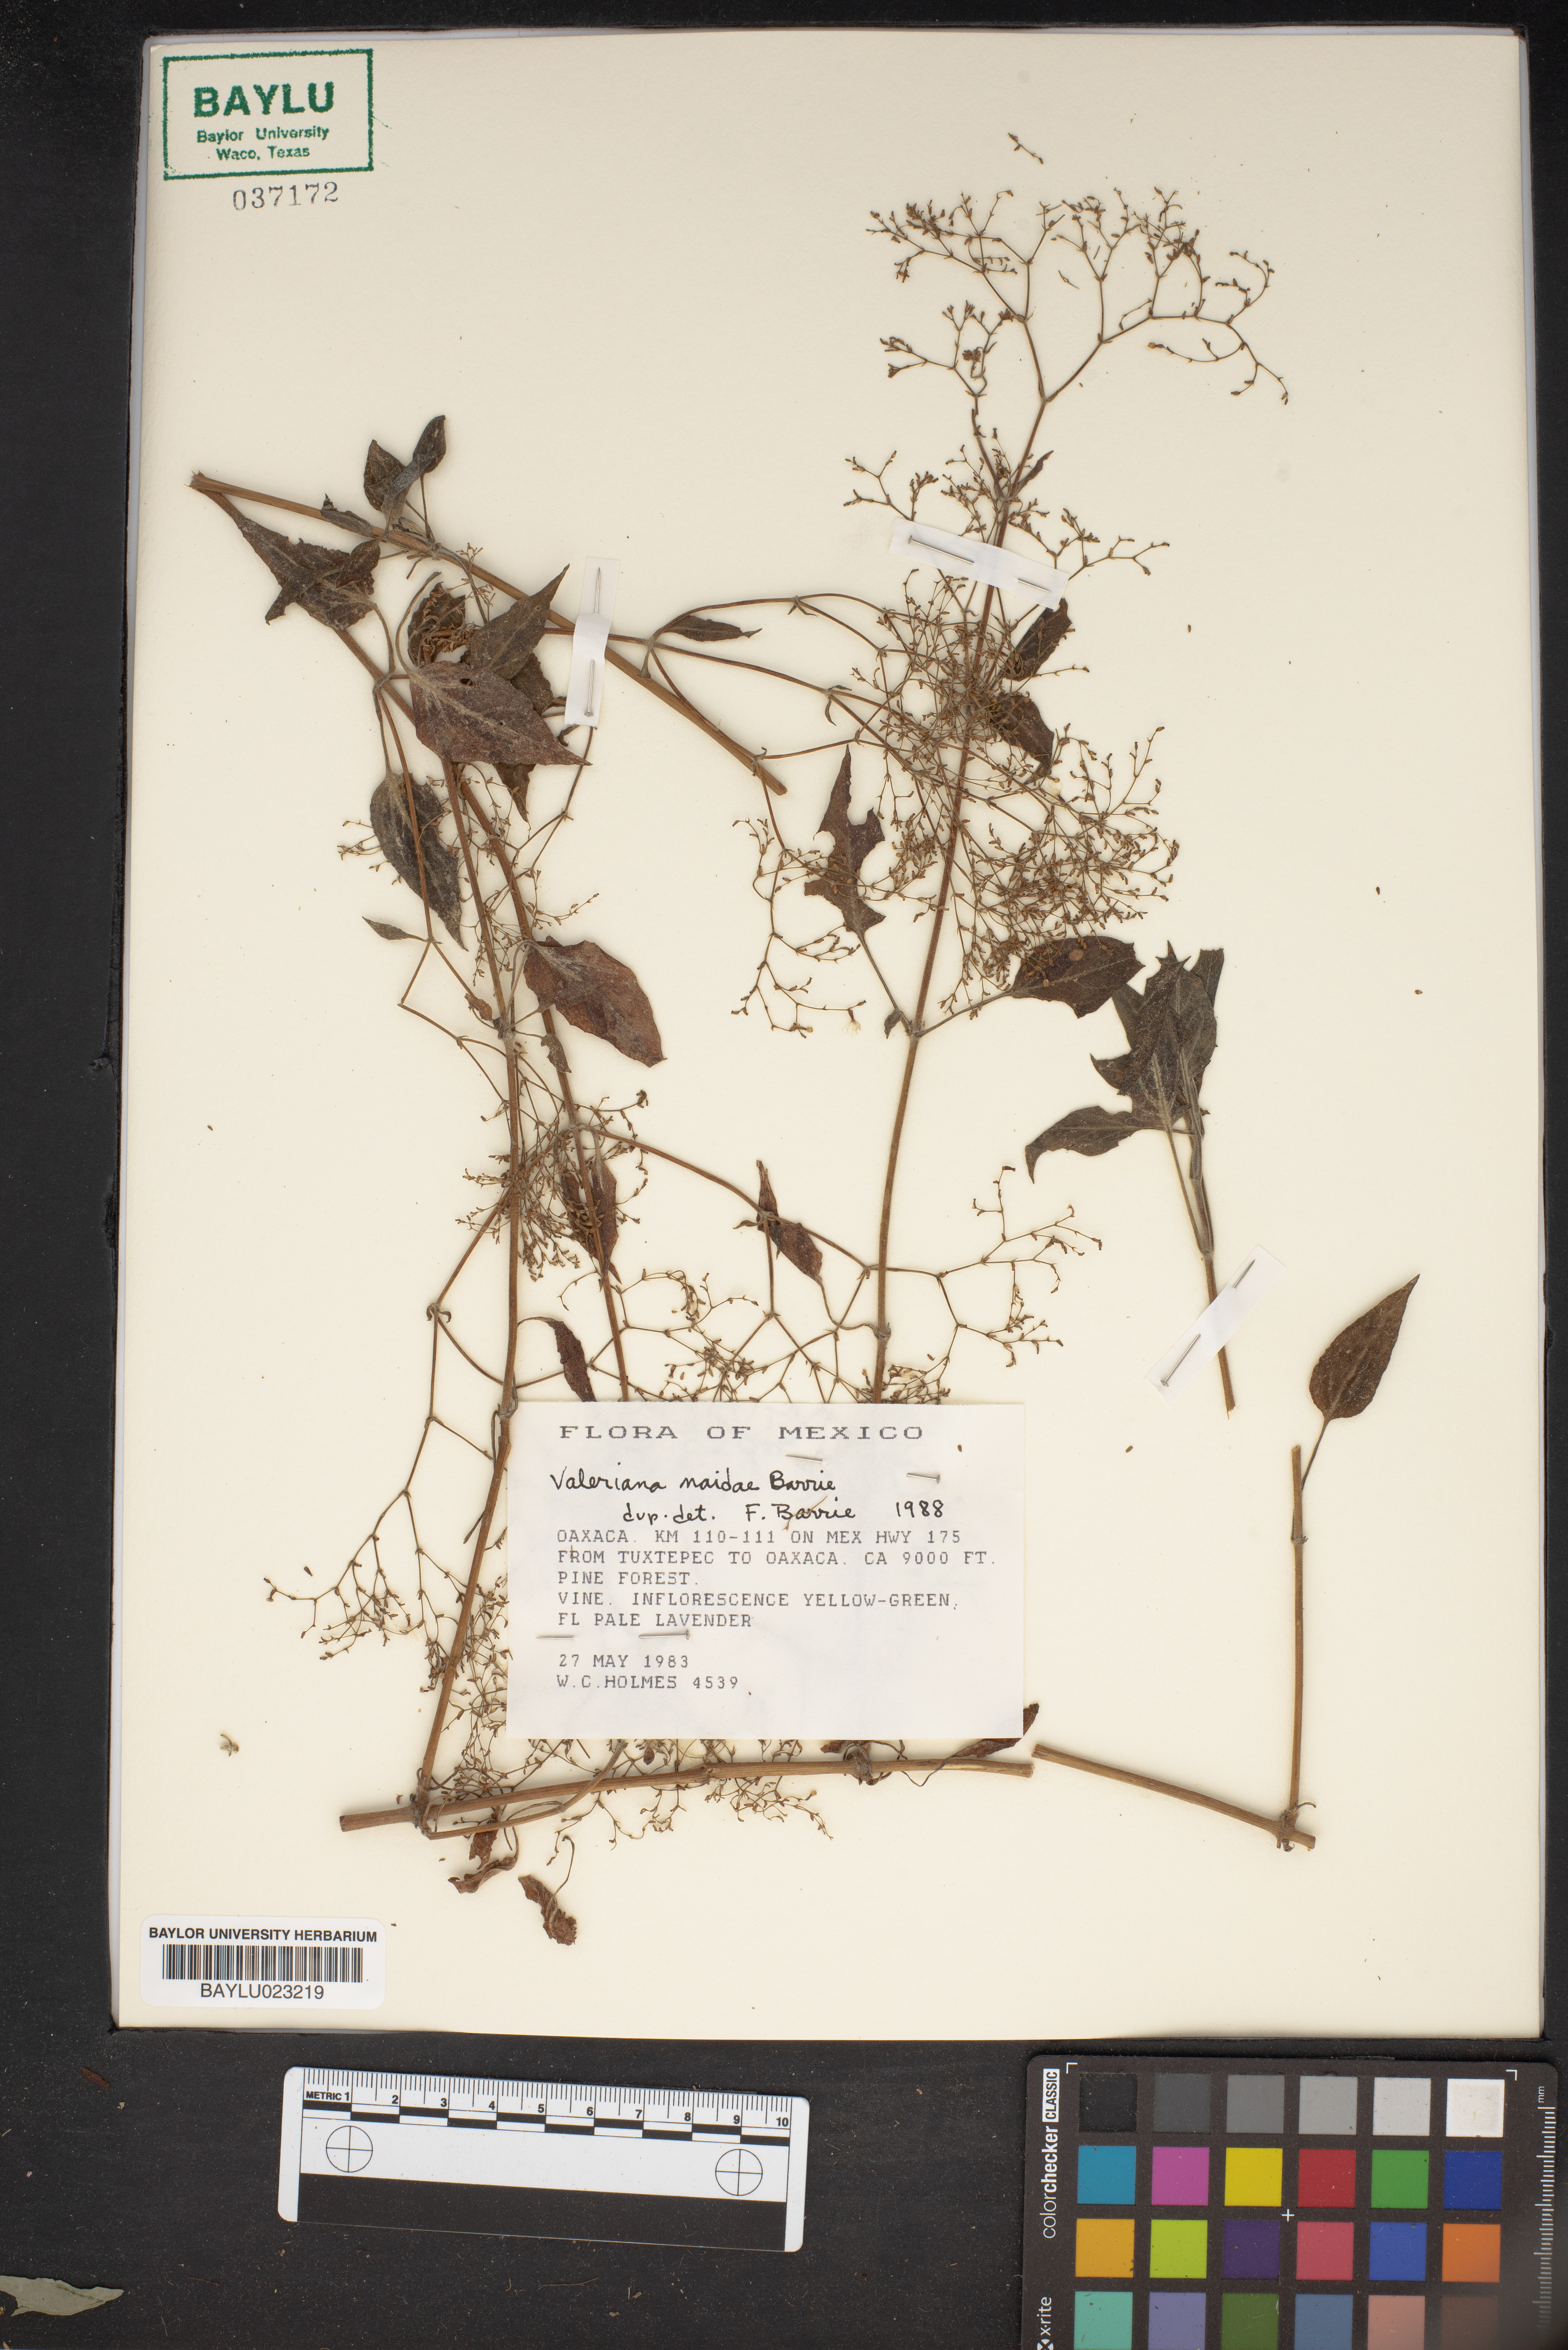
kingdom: Plantae
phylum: Tracheophyta
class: Magnoliopsida
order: Dipsacales
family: Caprifoliaceae
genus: Valeriana
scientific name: Valeriana naidae
